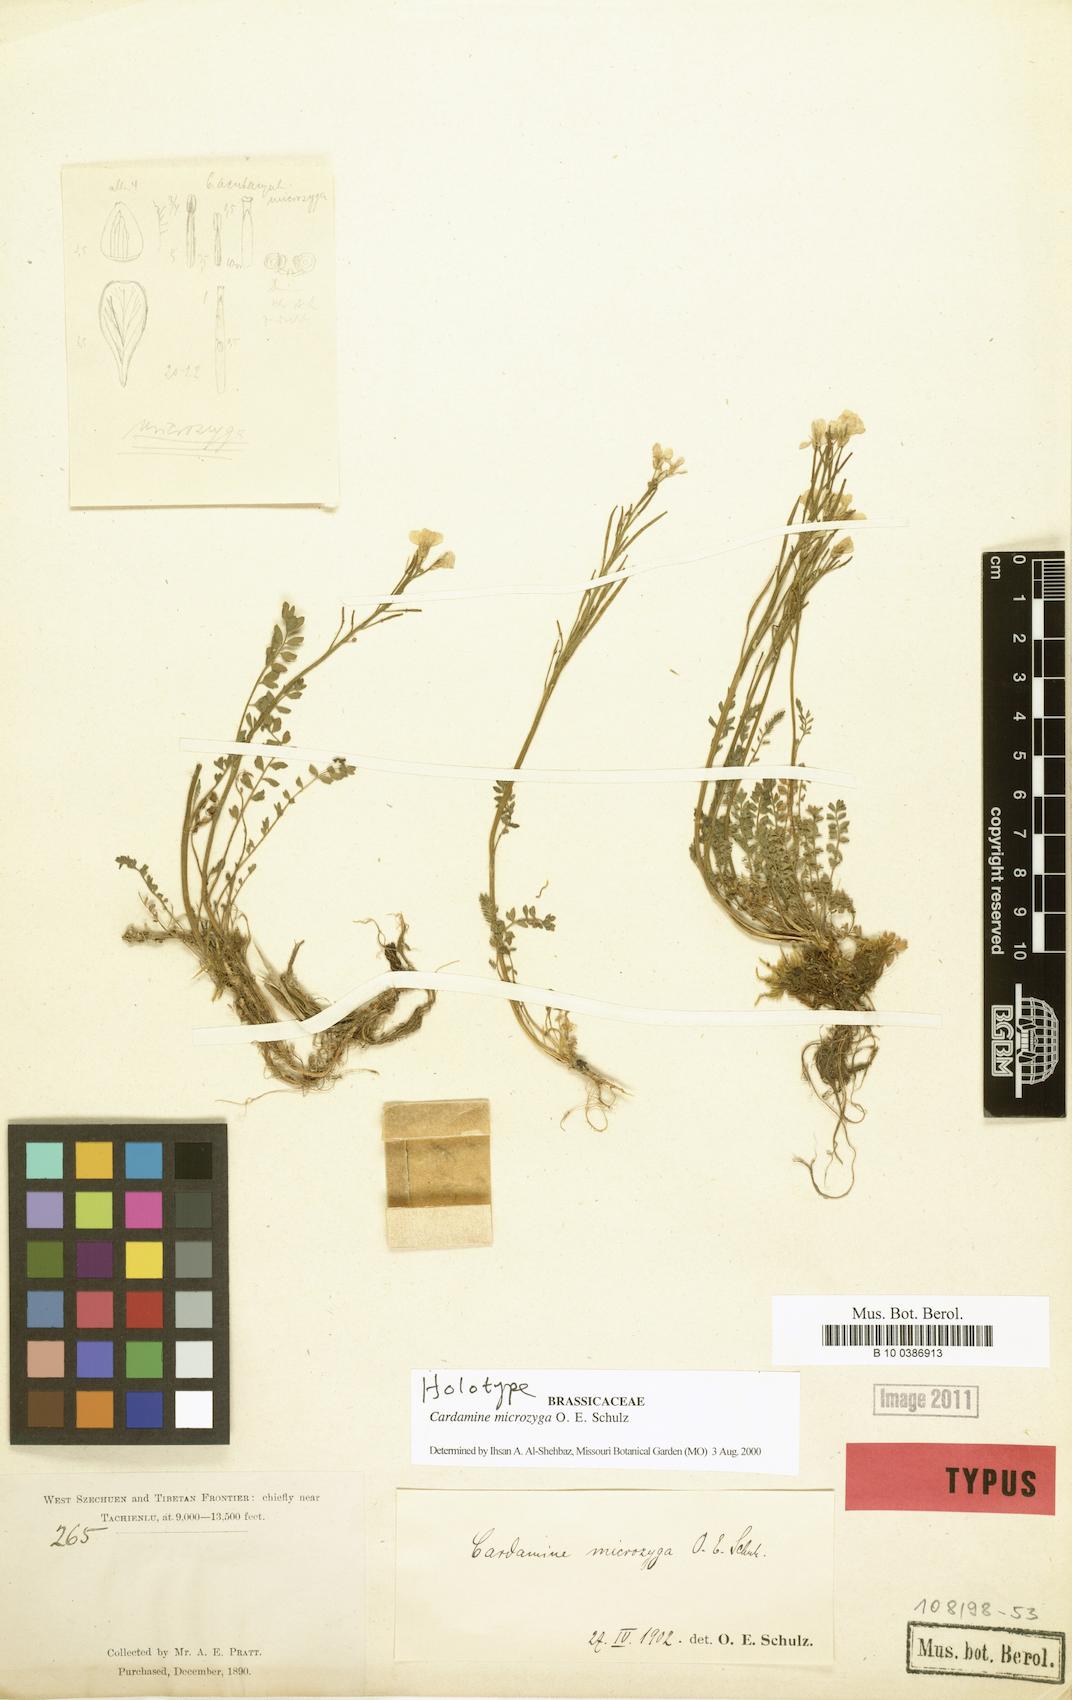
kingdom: Plantae
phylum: Tracheophyta
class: Magnoliopsida
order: Brassicales
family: Brassicaceae
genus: Cardamine
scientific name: Cardamine microzyga
